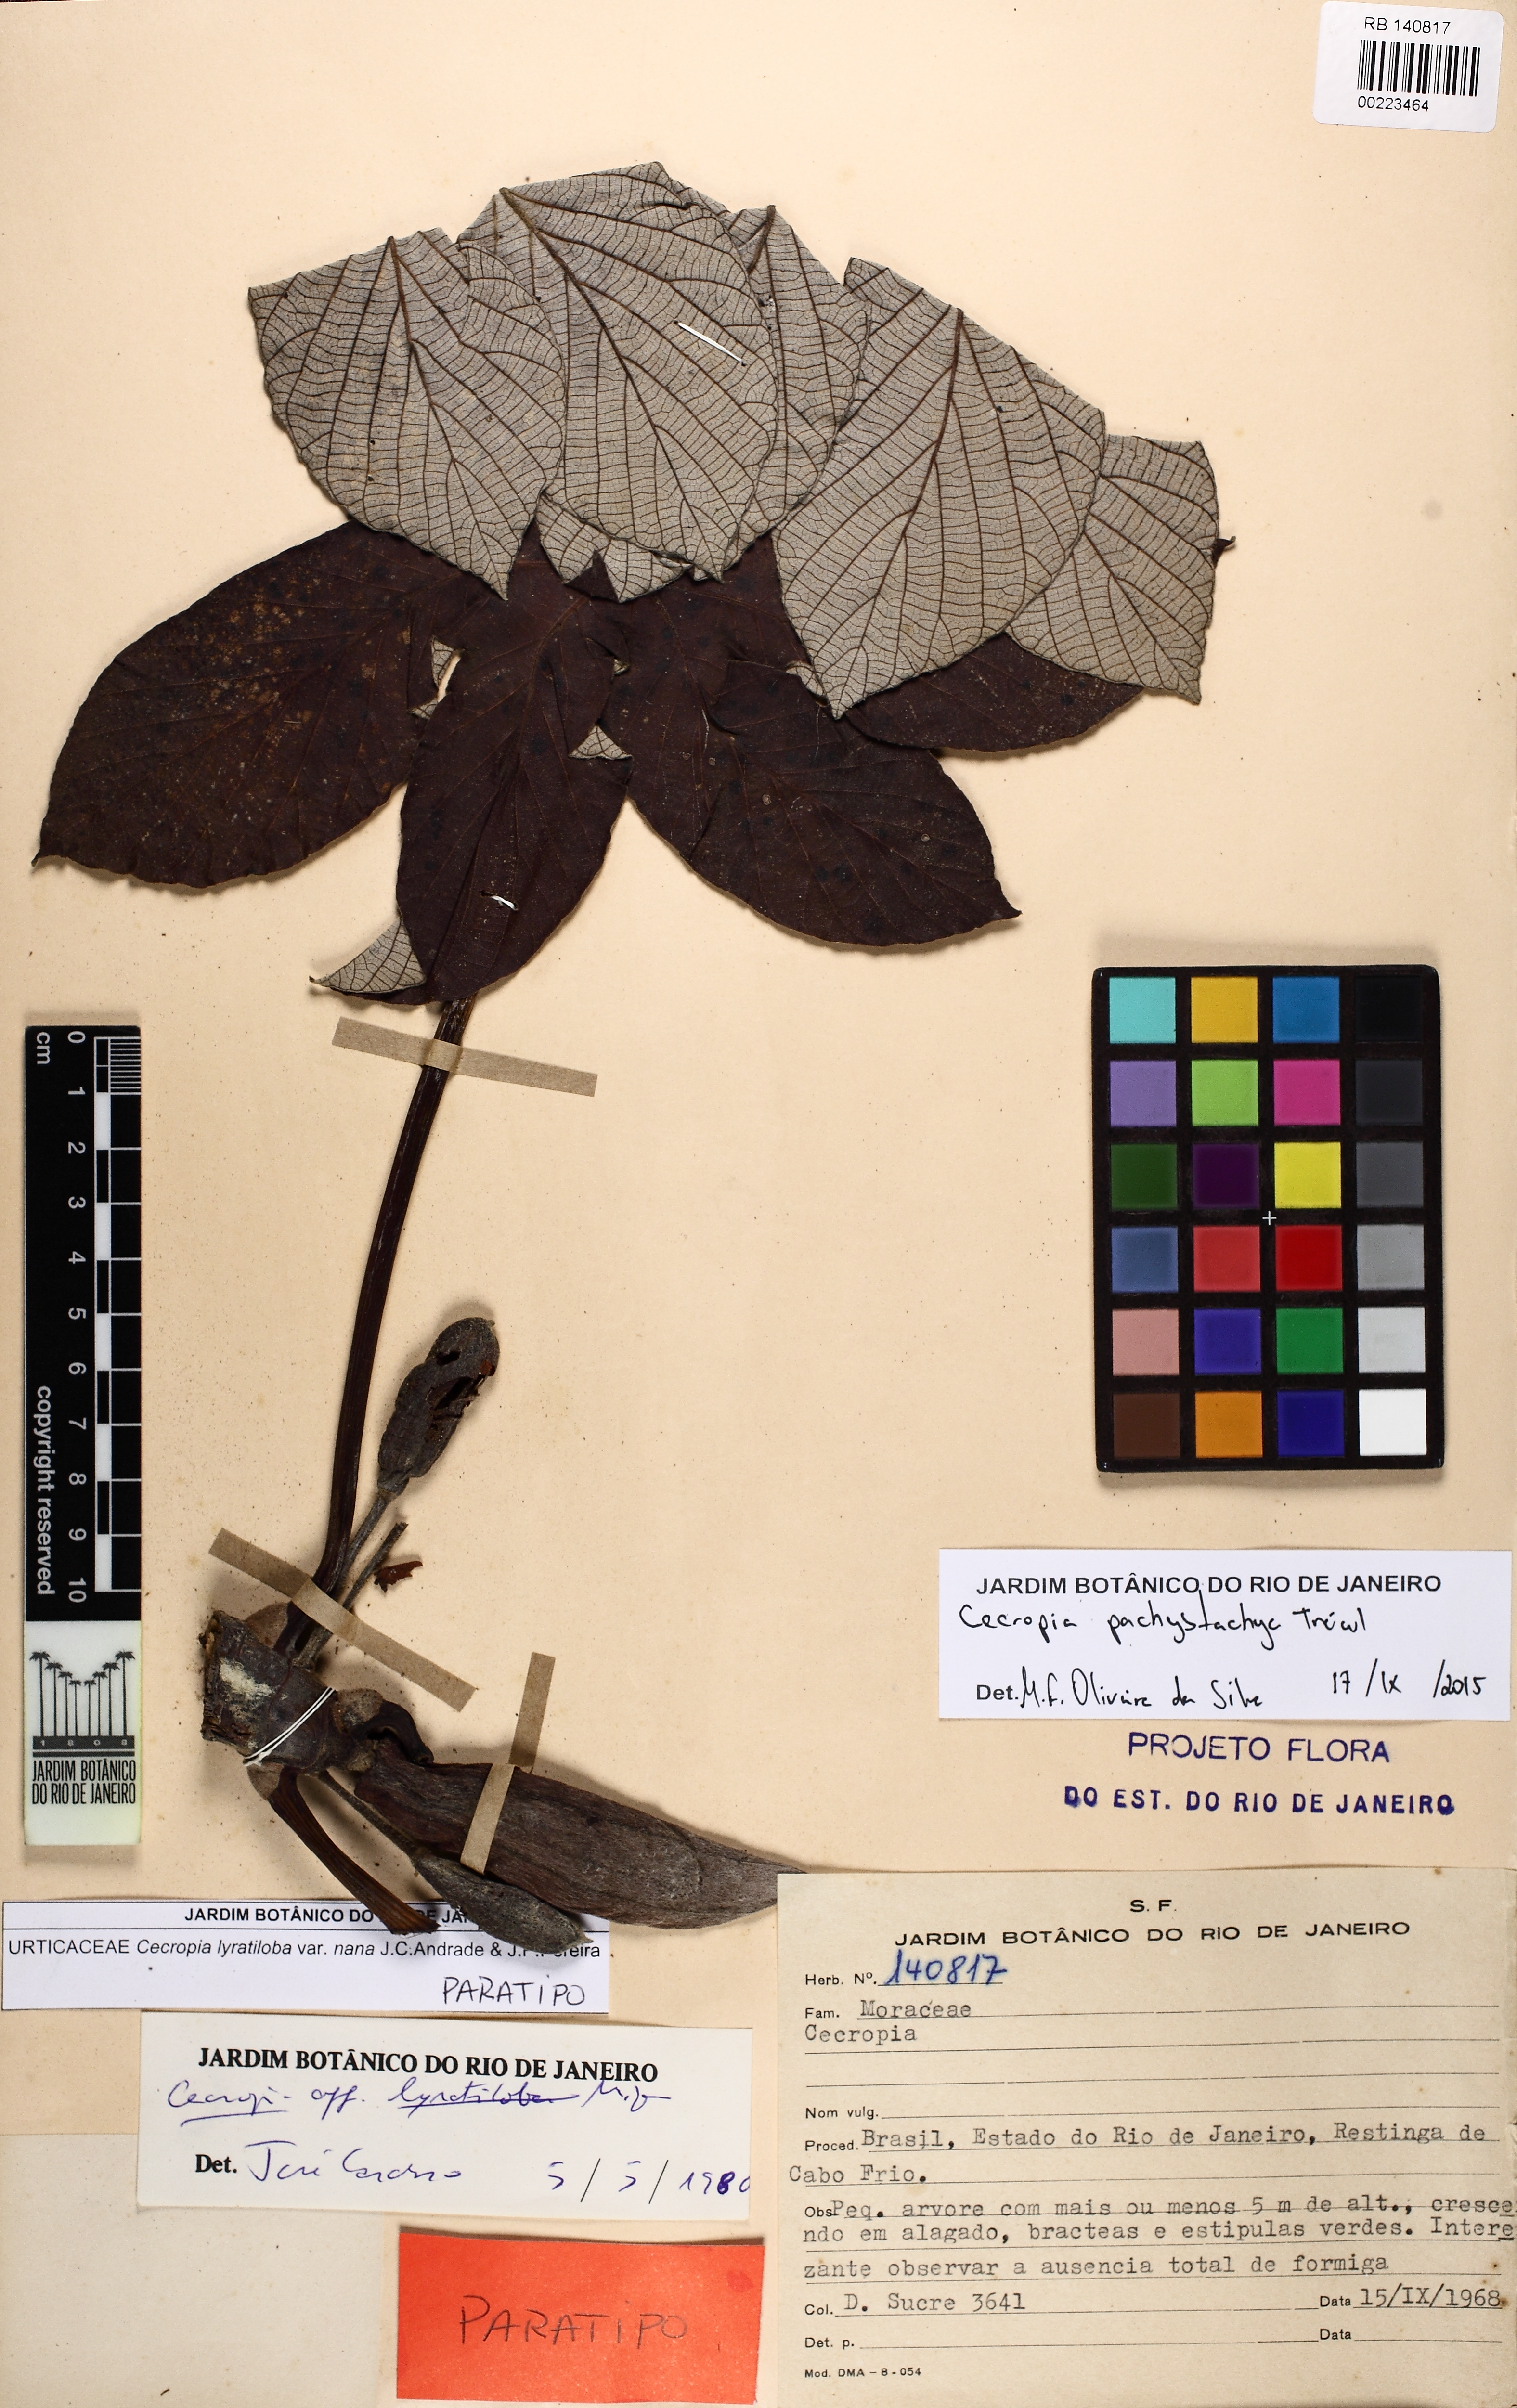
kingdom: Plantae
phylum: Tracheophyta
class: Magnoliopsida
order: Rosales
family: Urticaceae
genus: Cecropia
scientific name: Cecropia pachystachya
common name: Ambay pumpwood
